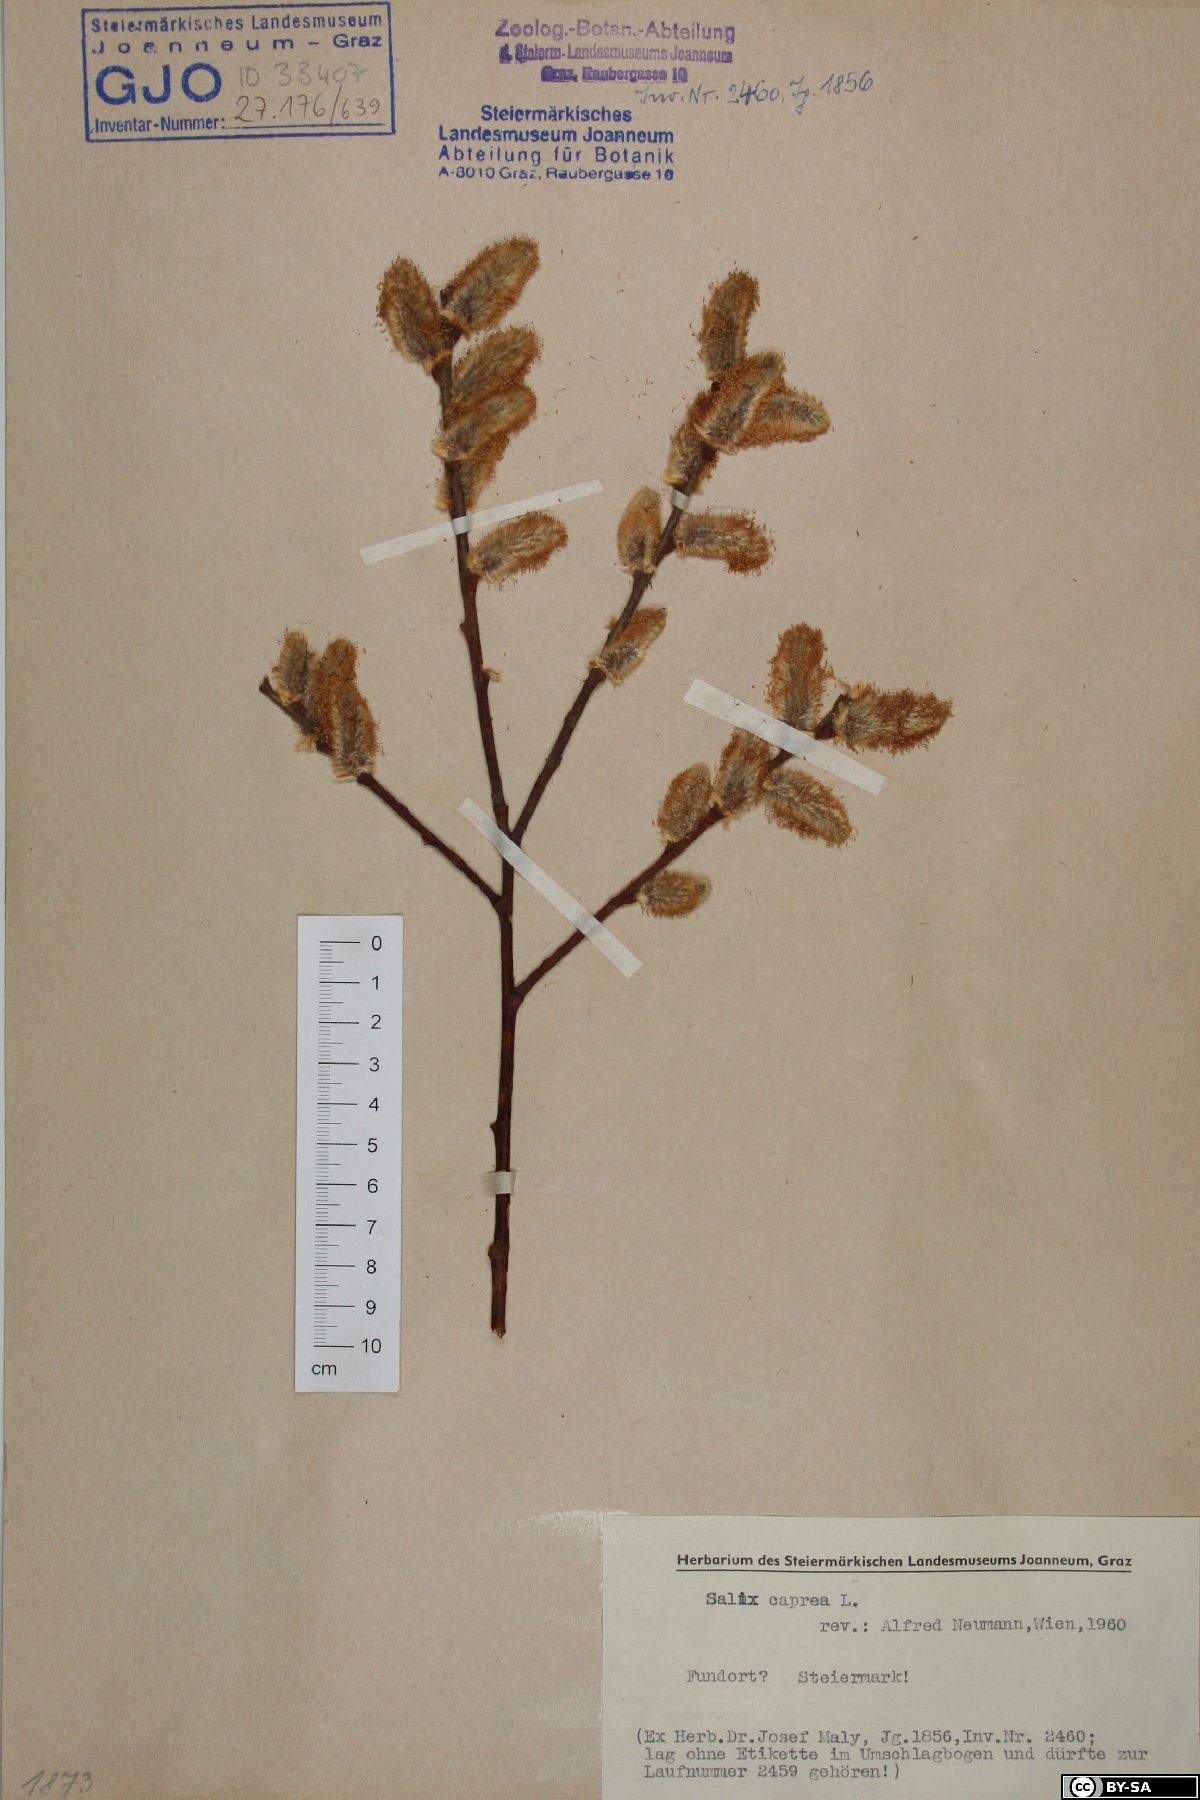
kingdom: Plantae
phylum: Tracheophyta
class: Magnoliopsida
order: Malpighiales
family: Salicaceae
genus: Salix
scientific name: Salix caprea
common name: Goat willow
